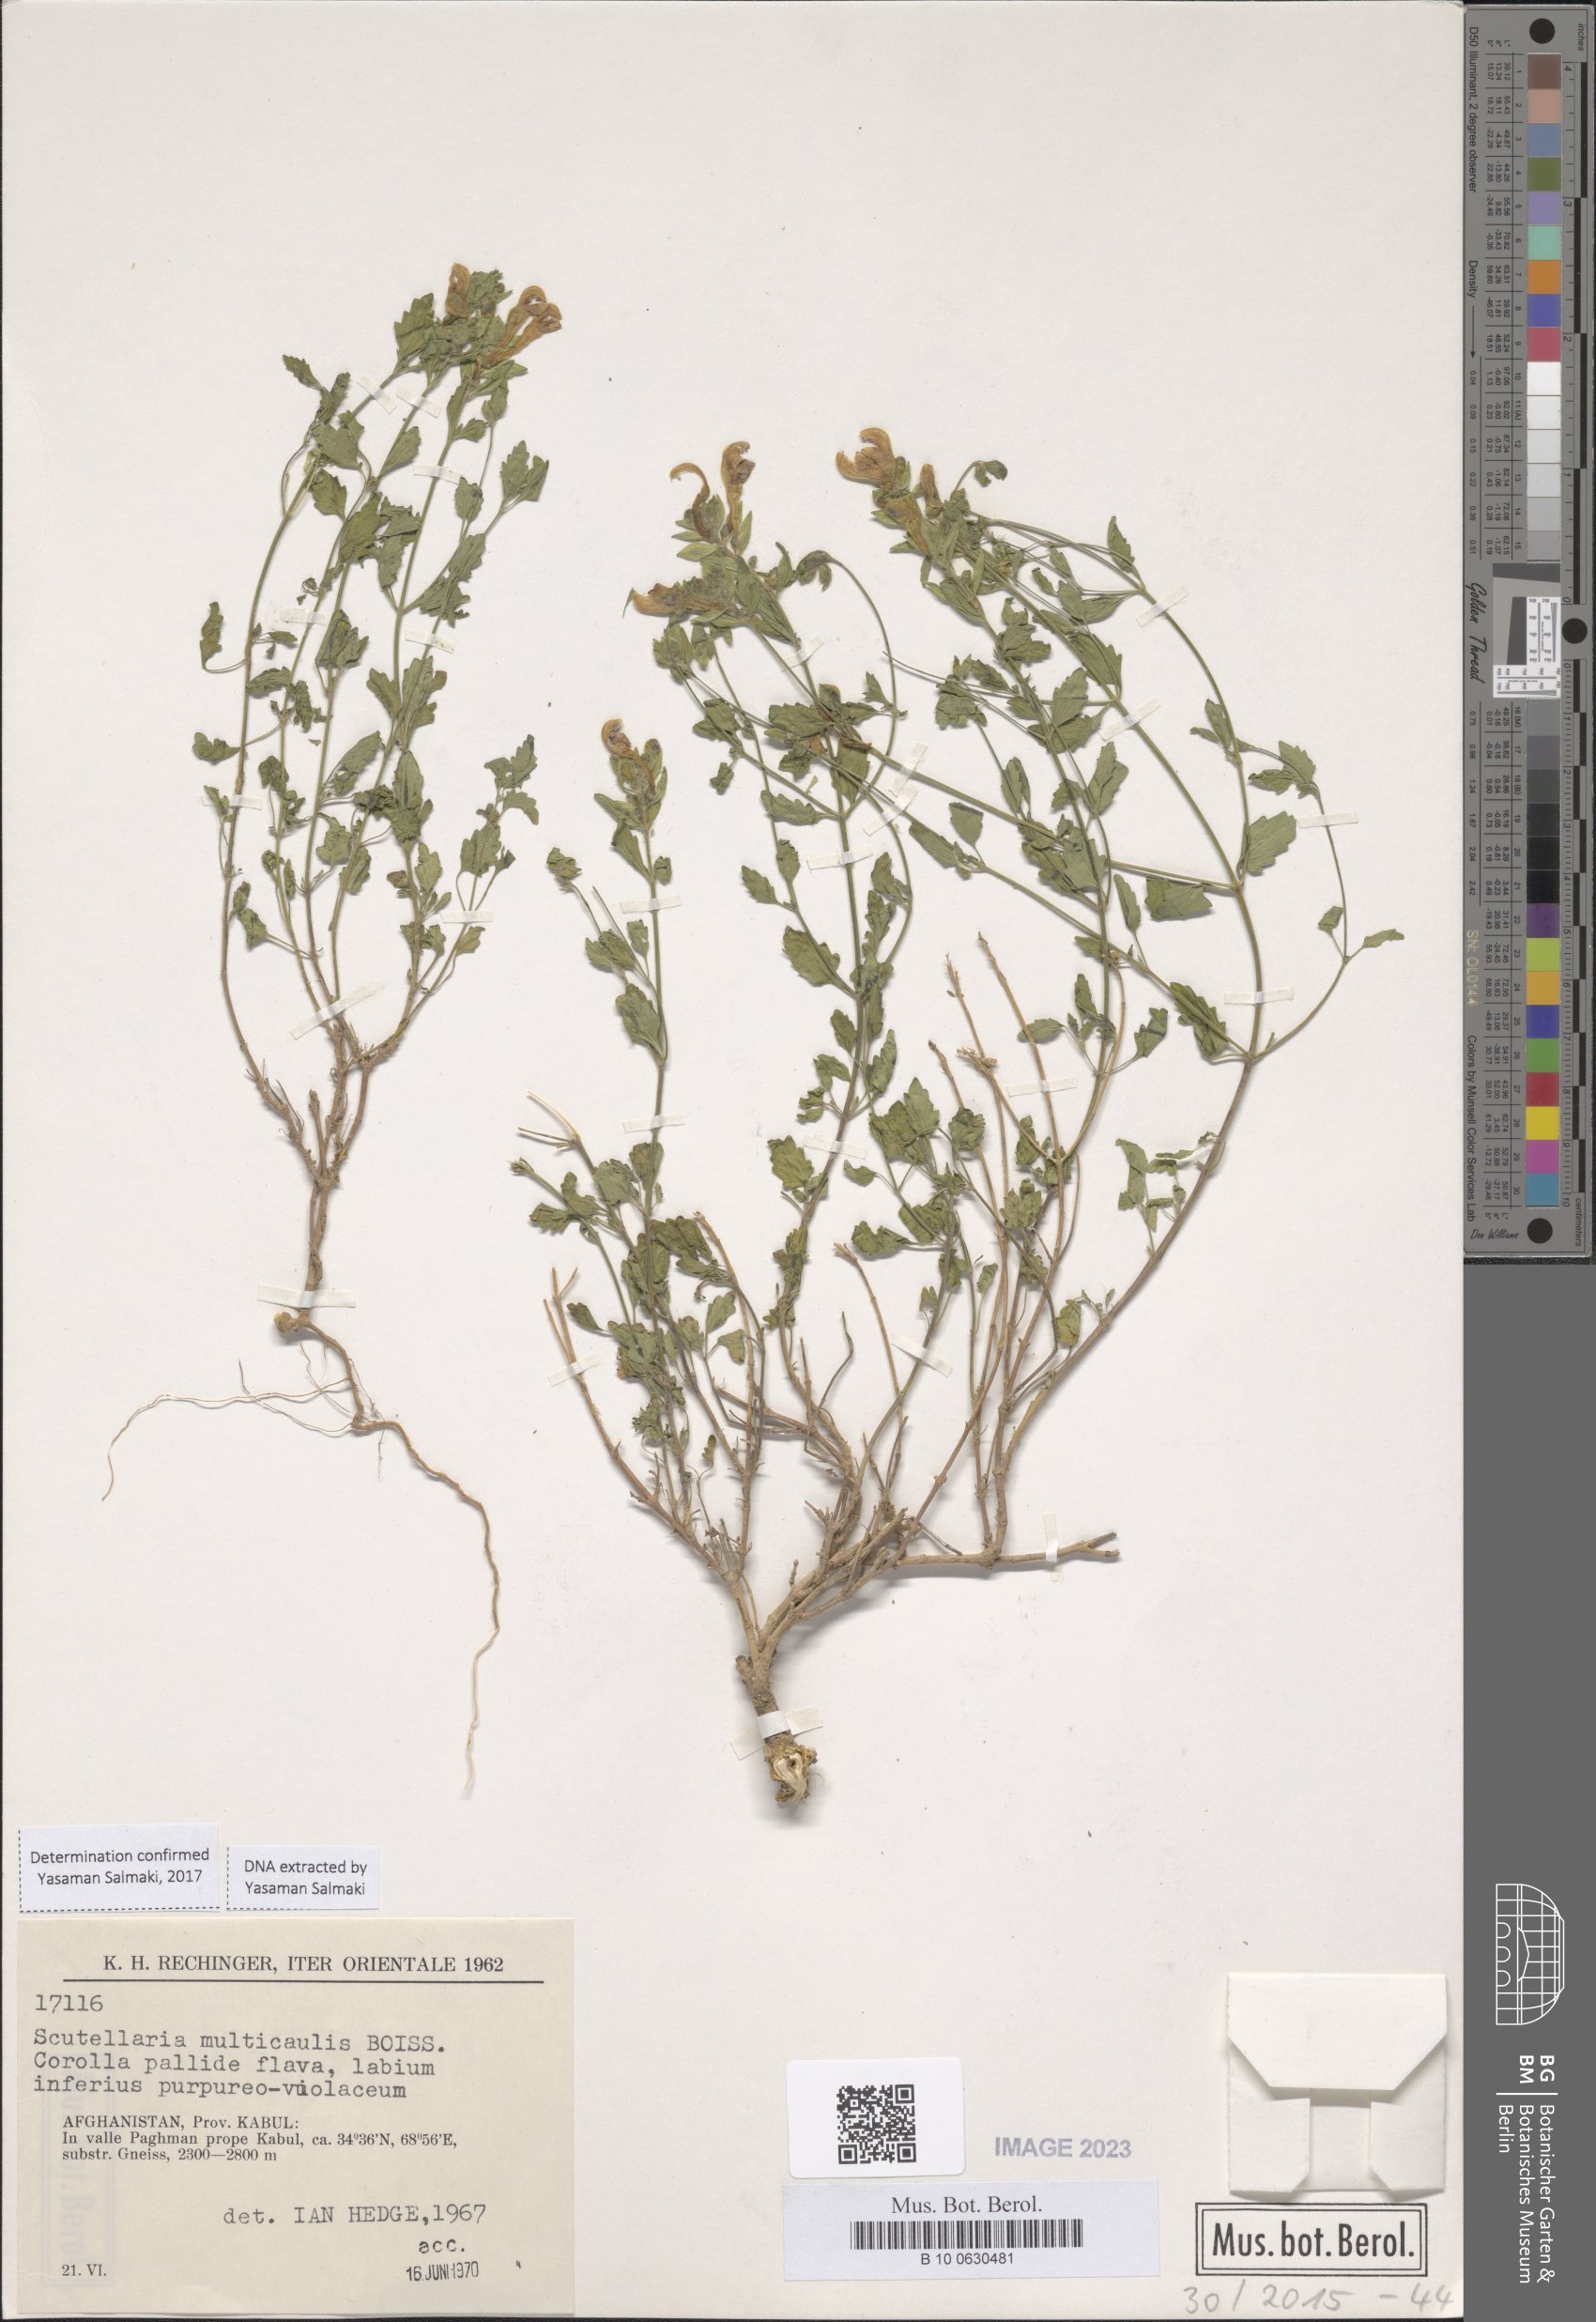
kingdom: Plantae
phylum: Tracheophyta
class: Magnoliopsida
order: Lamiales
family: Lamiaceae
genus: Scutellaria
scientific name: Scutellaria multicaulis
